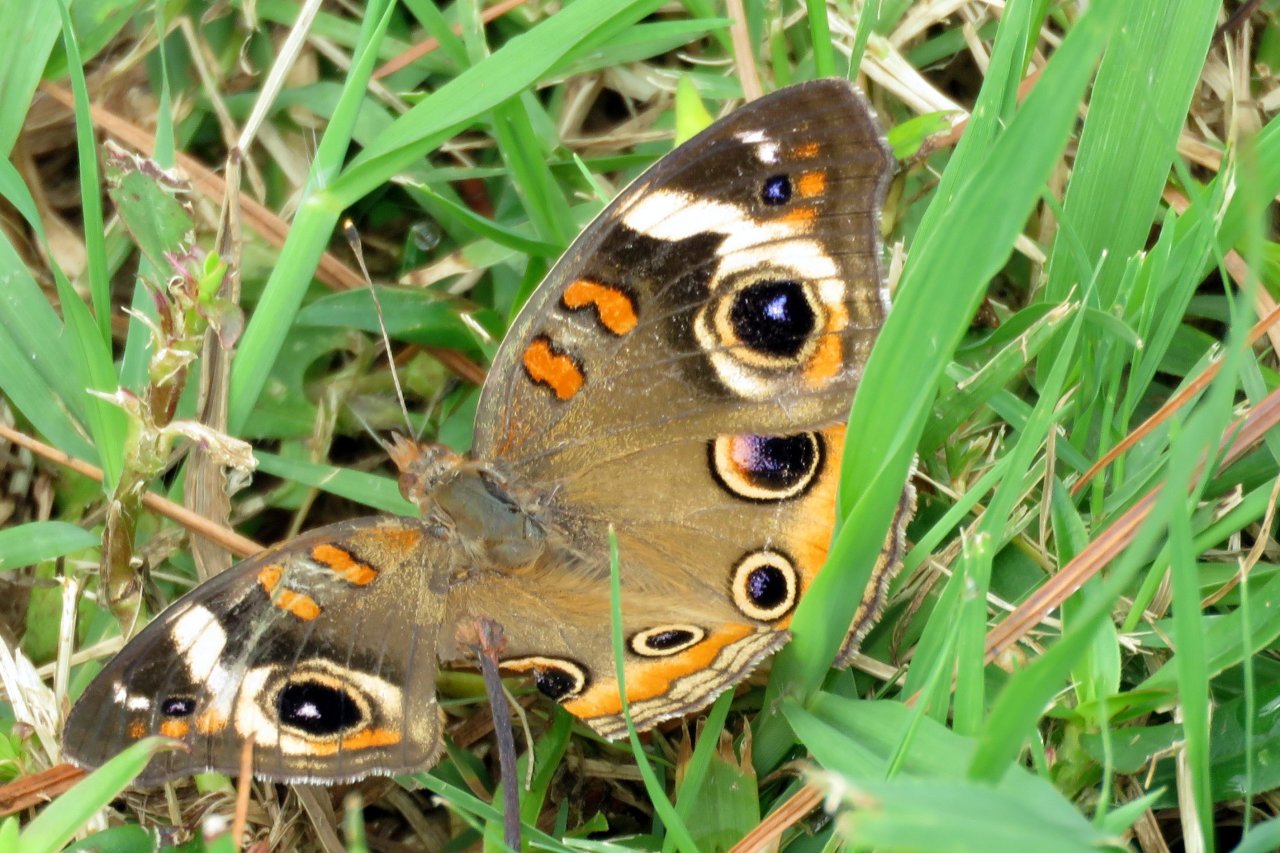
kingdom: Animalia
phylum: Arthropoda
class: Insecta
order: Lepidoptera
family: Nymphalidae
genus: Junonia
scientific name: Junonia coenia
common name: Common Buckeye
